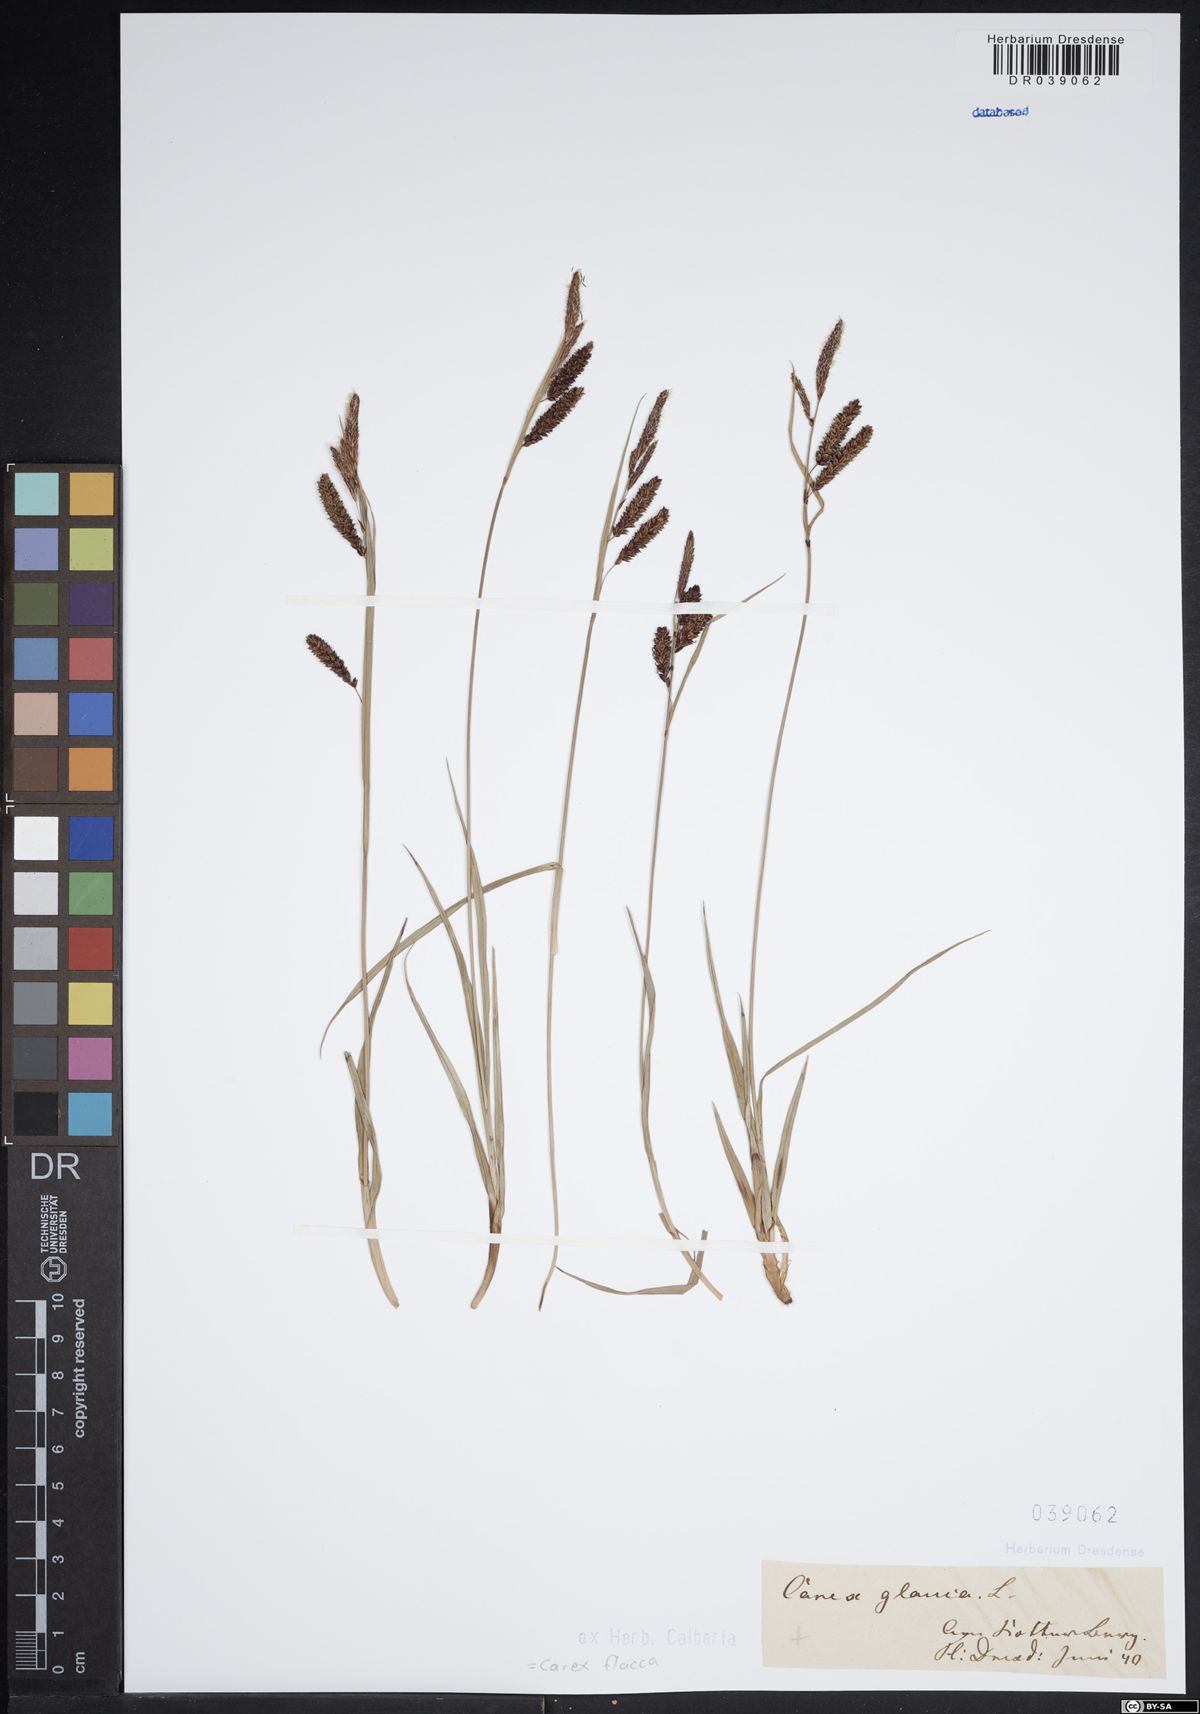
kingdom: Plantae
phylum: Tracheophyta
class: Liliopsida
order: Poales
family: Cyperaceae
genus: Carex
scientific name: Carex flacca
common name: Glaucous sedge
